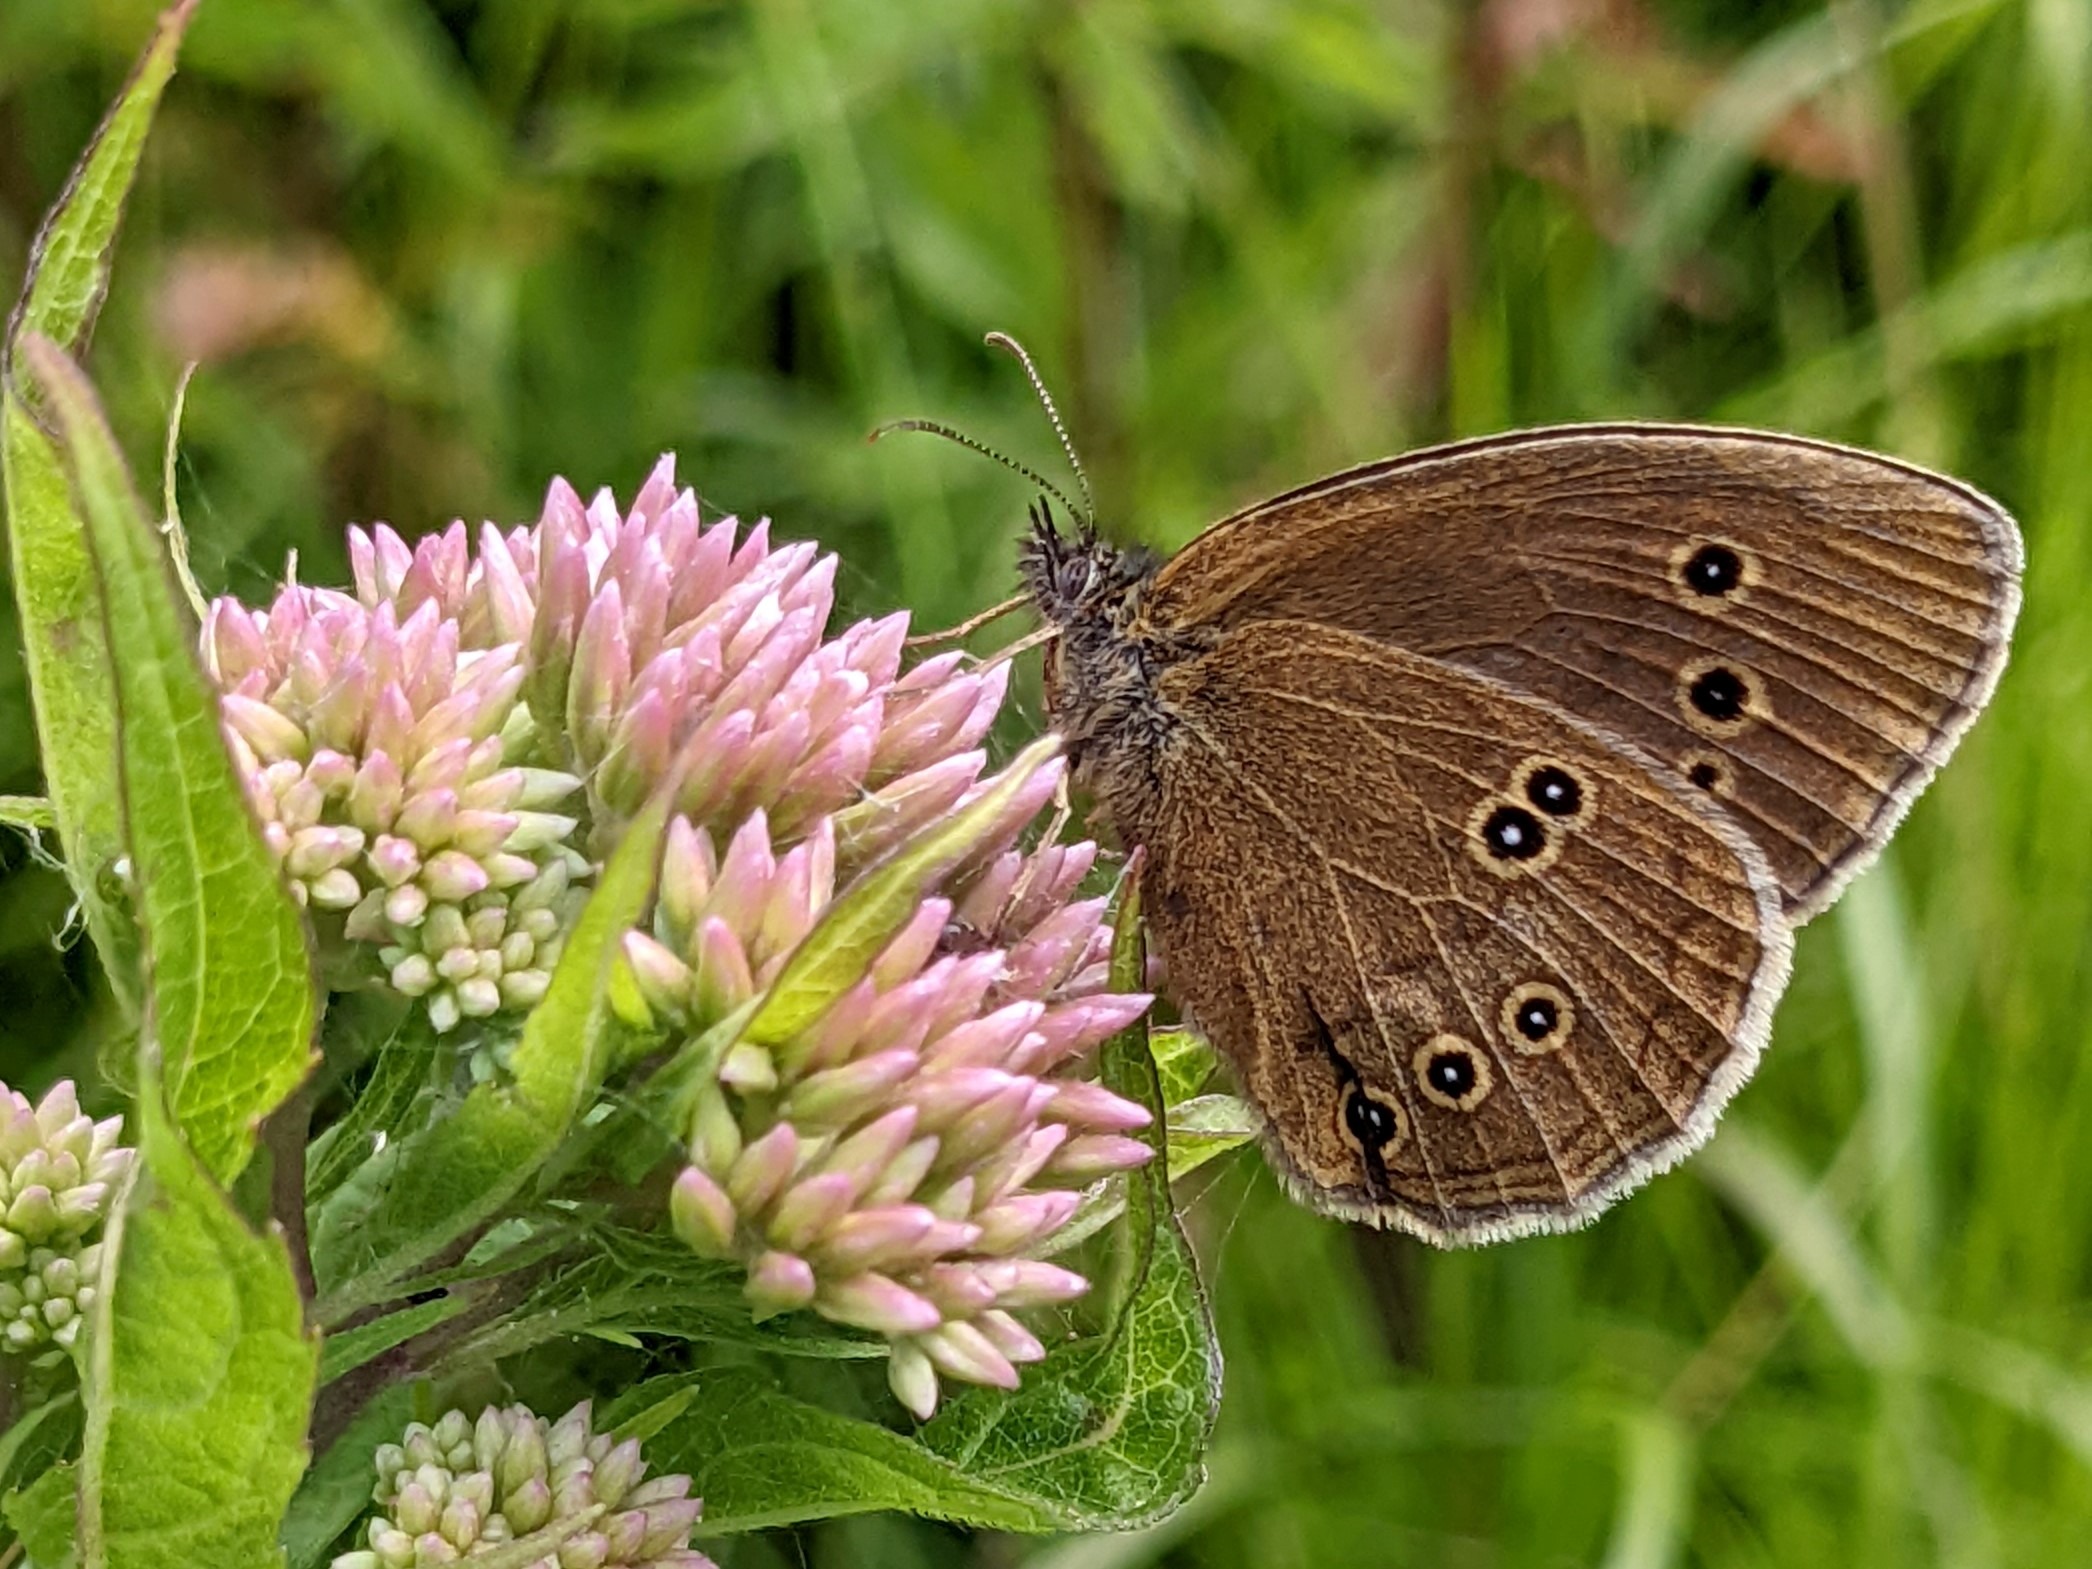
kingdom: Animalia
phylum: Arthropoda
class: Insecta
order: Lepidoptera
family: Nymphalidae
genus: Aphantopus
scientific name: Aphantopus hyperantus
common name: Engrandøje
